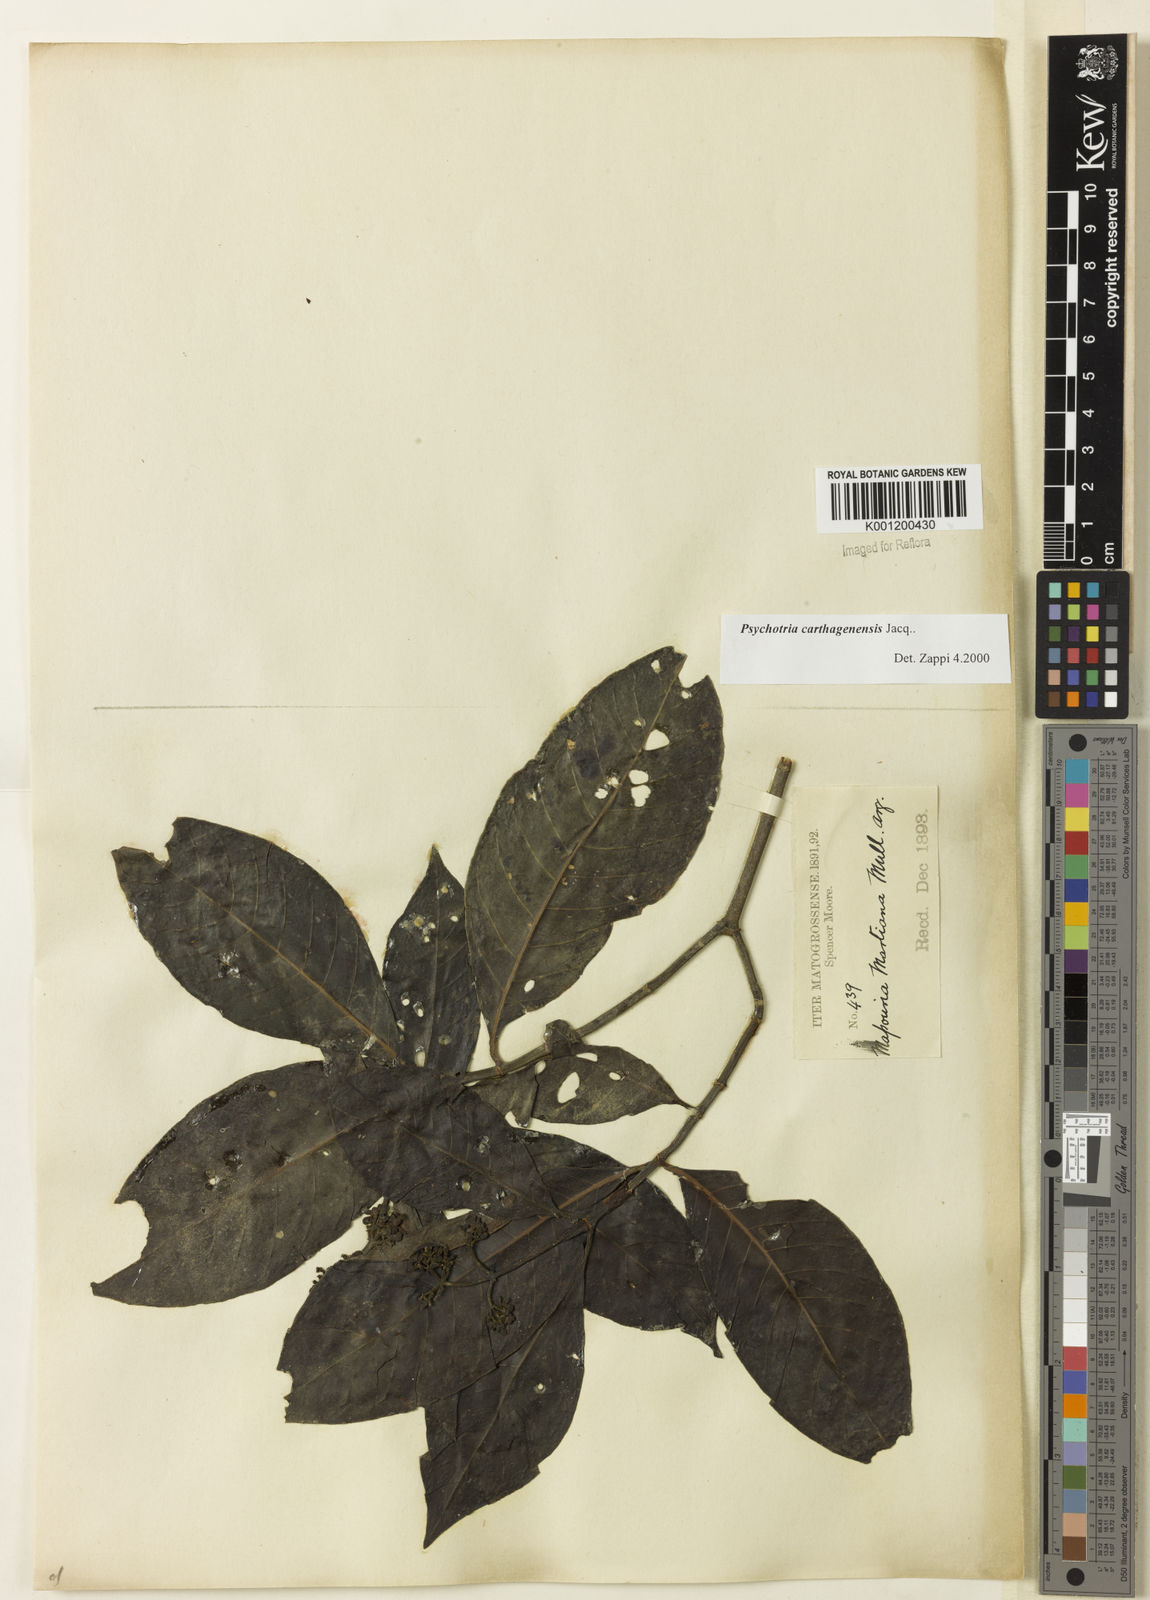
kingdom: Plantae
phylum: Tracheophyta
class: Magnoliopsida
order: Gentianales
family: Rubiaceae
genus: Psychotria
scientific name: Psychotria carthagenensis
